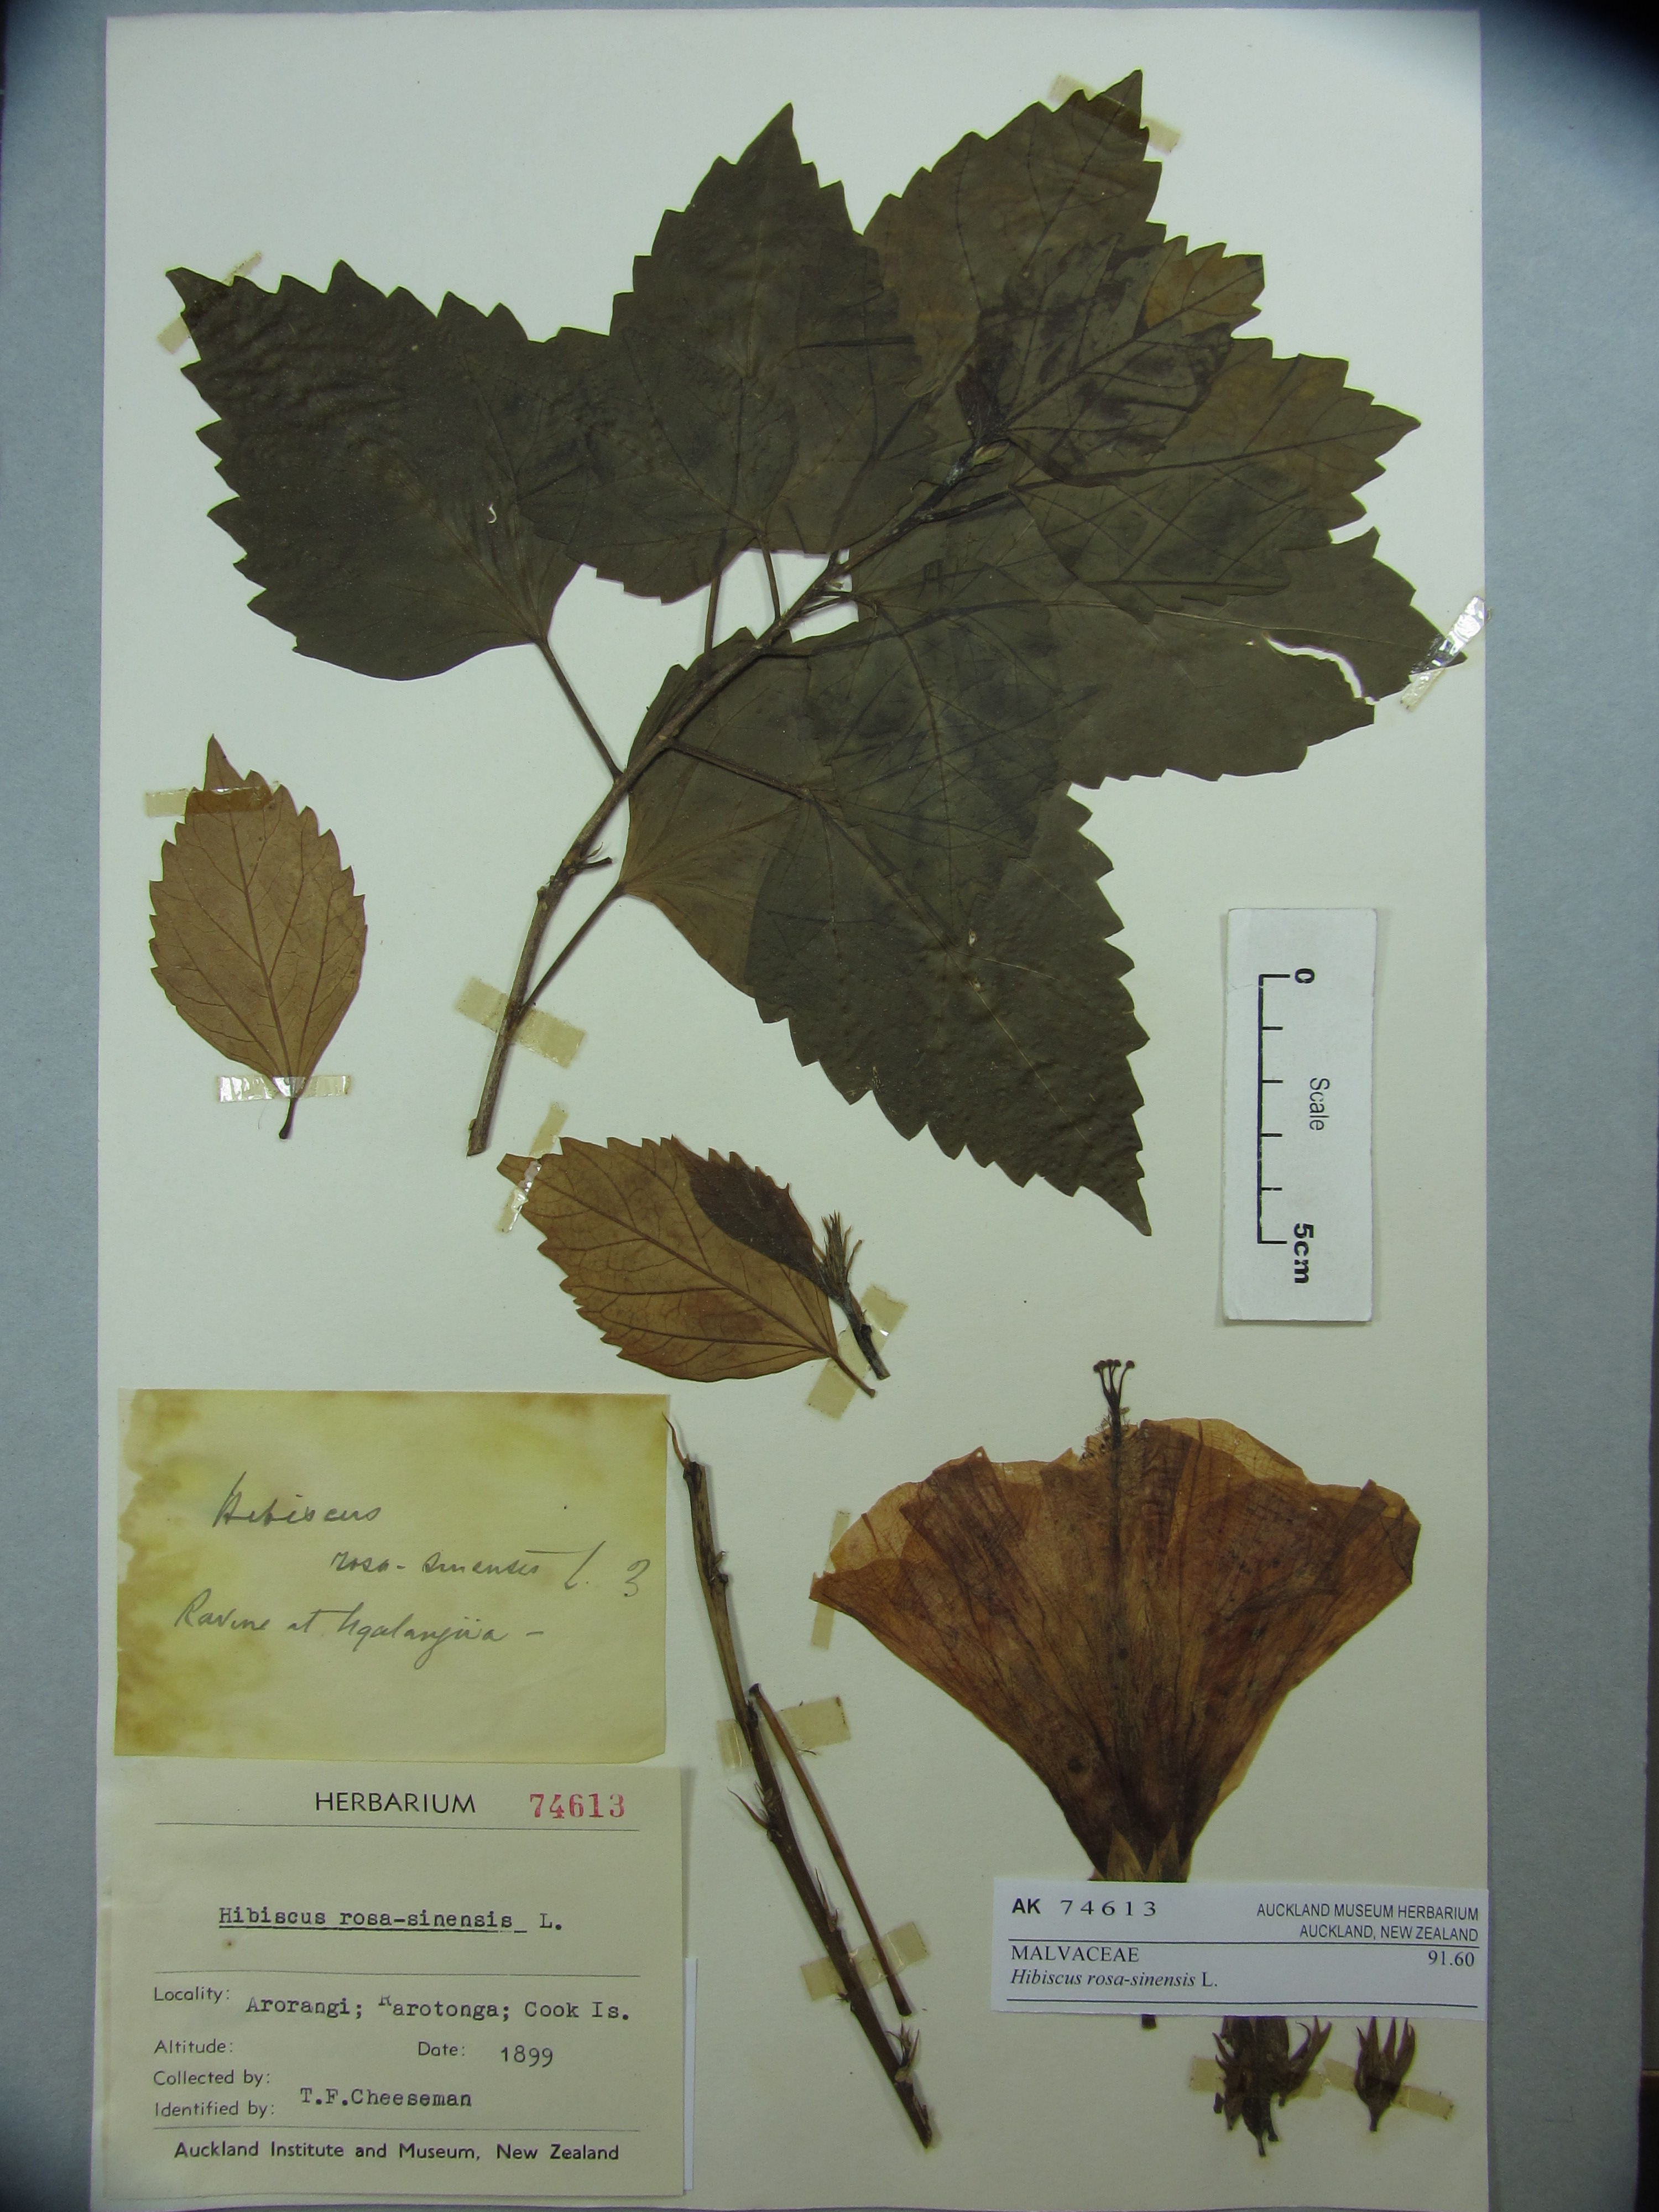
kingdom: Plantae
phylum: Tracheophyta
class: Magnoliopsida
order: Malvales
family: Malvaceae
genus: Hibiscus
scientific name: Hibiscus rosa-sinensis
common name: Hibiscus
